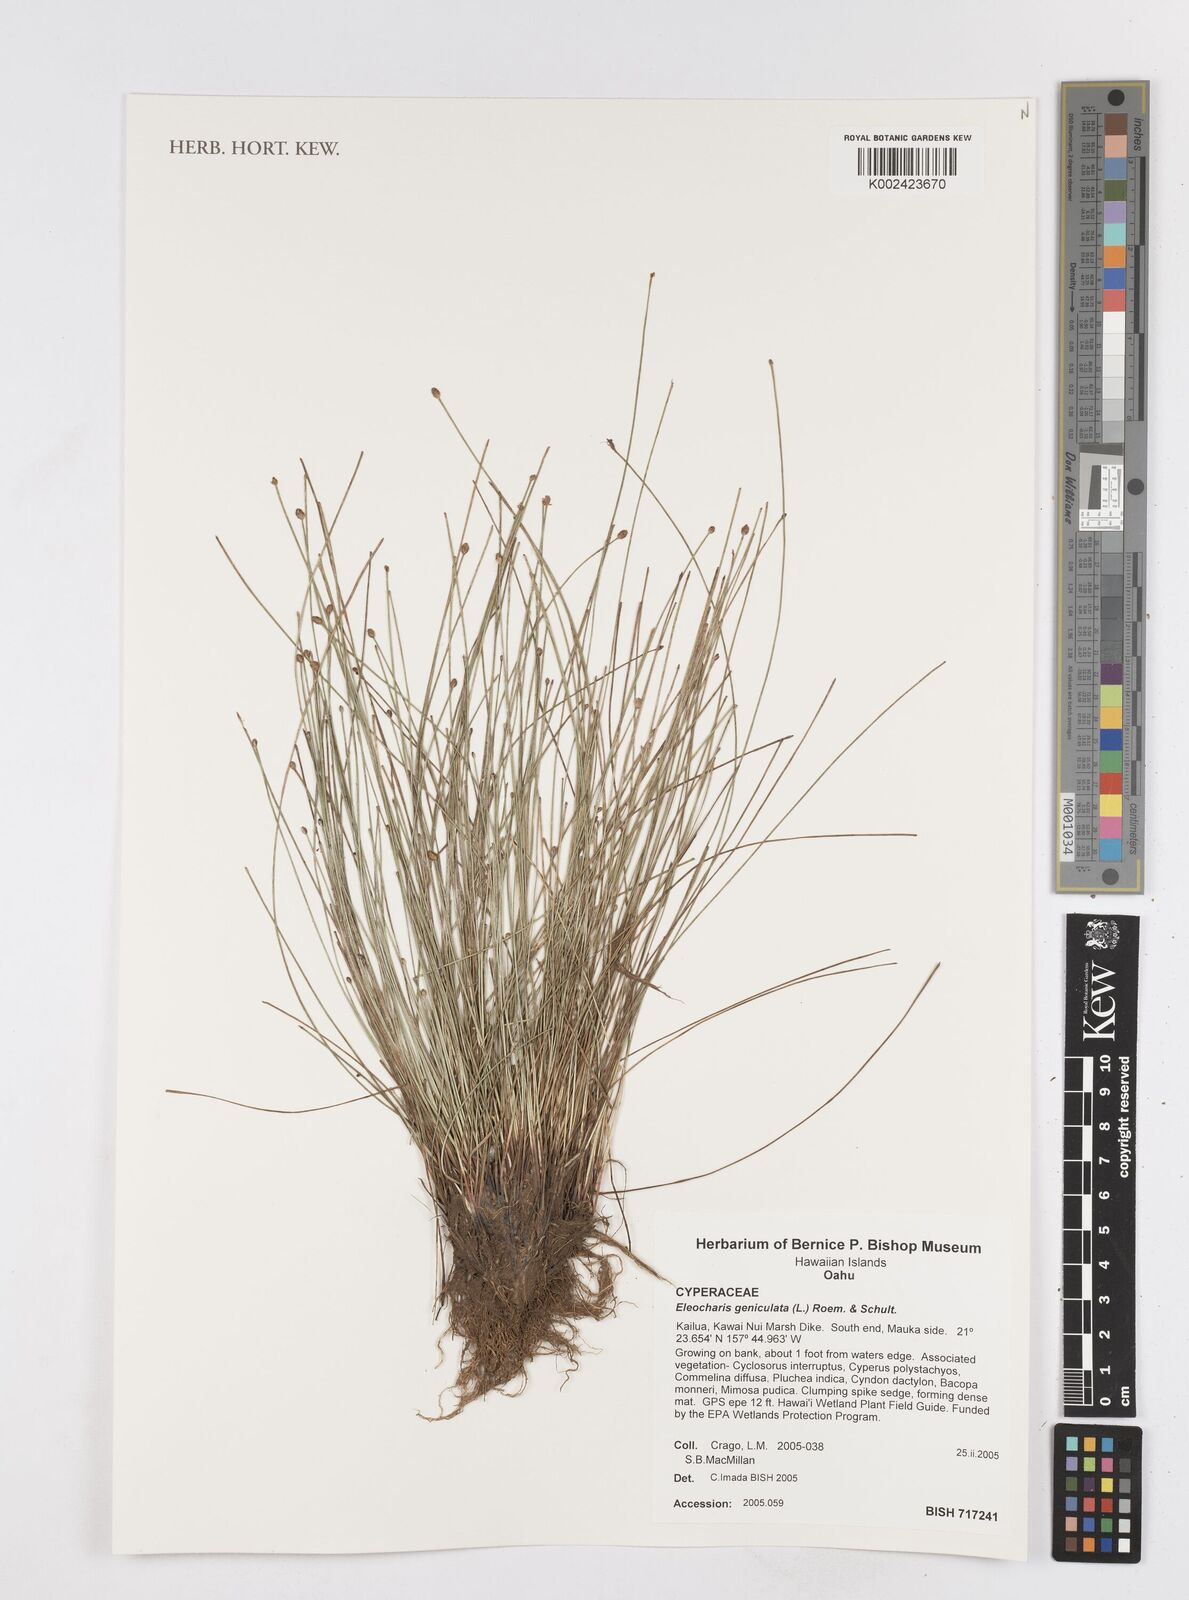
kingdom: Plantae
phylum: Tracheophyta
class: Liliopsida
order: Poales
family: Cyperaceae
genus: Eleocharis
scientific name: Eleocharis geniculata
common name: Canada spikesedge
